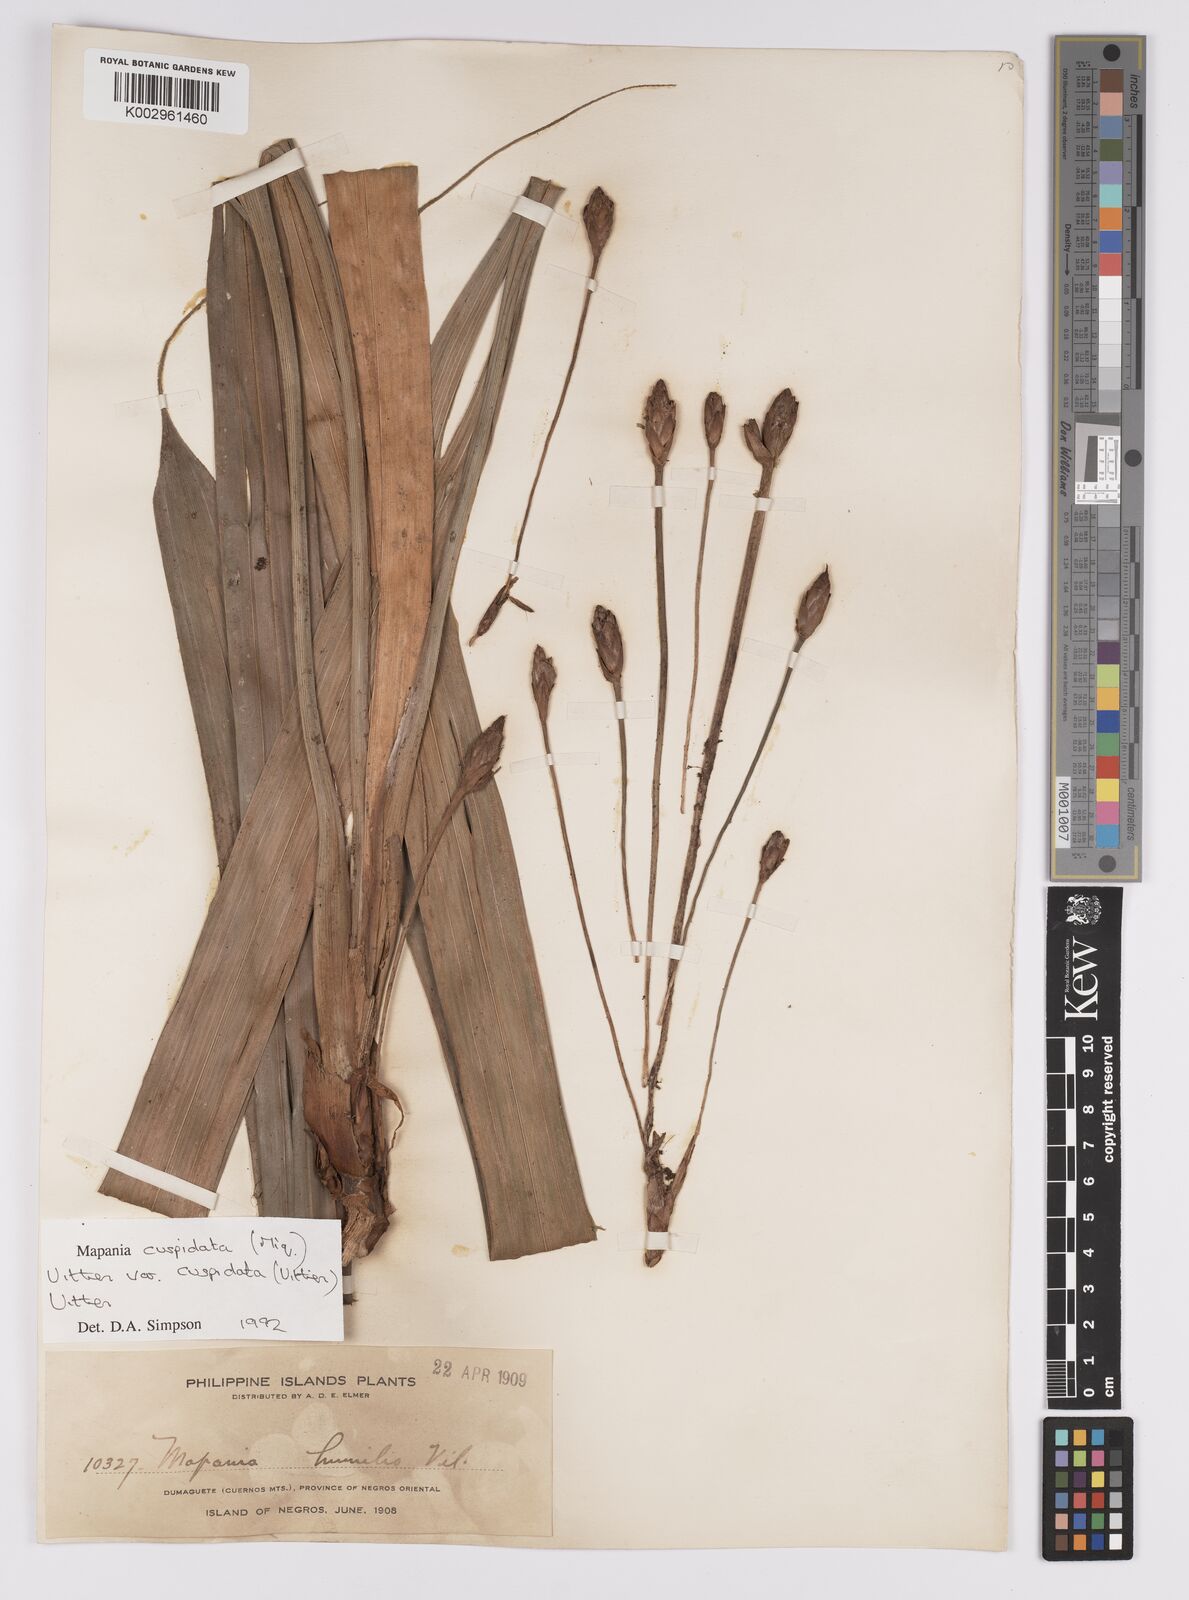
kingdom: Plantae
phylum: Tracheophyta
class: Liliopsida
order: Poales
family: Cyperaceae
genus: Mapania
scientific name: Mapania cuspidata
